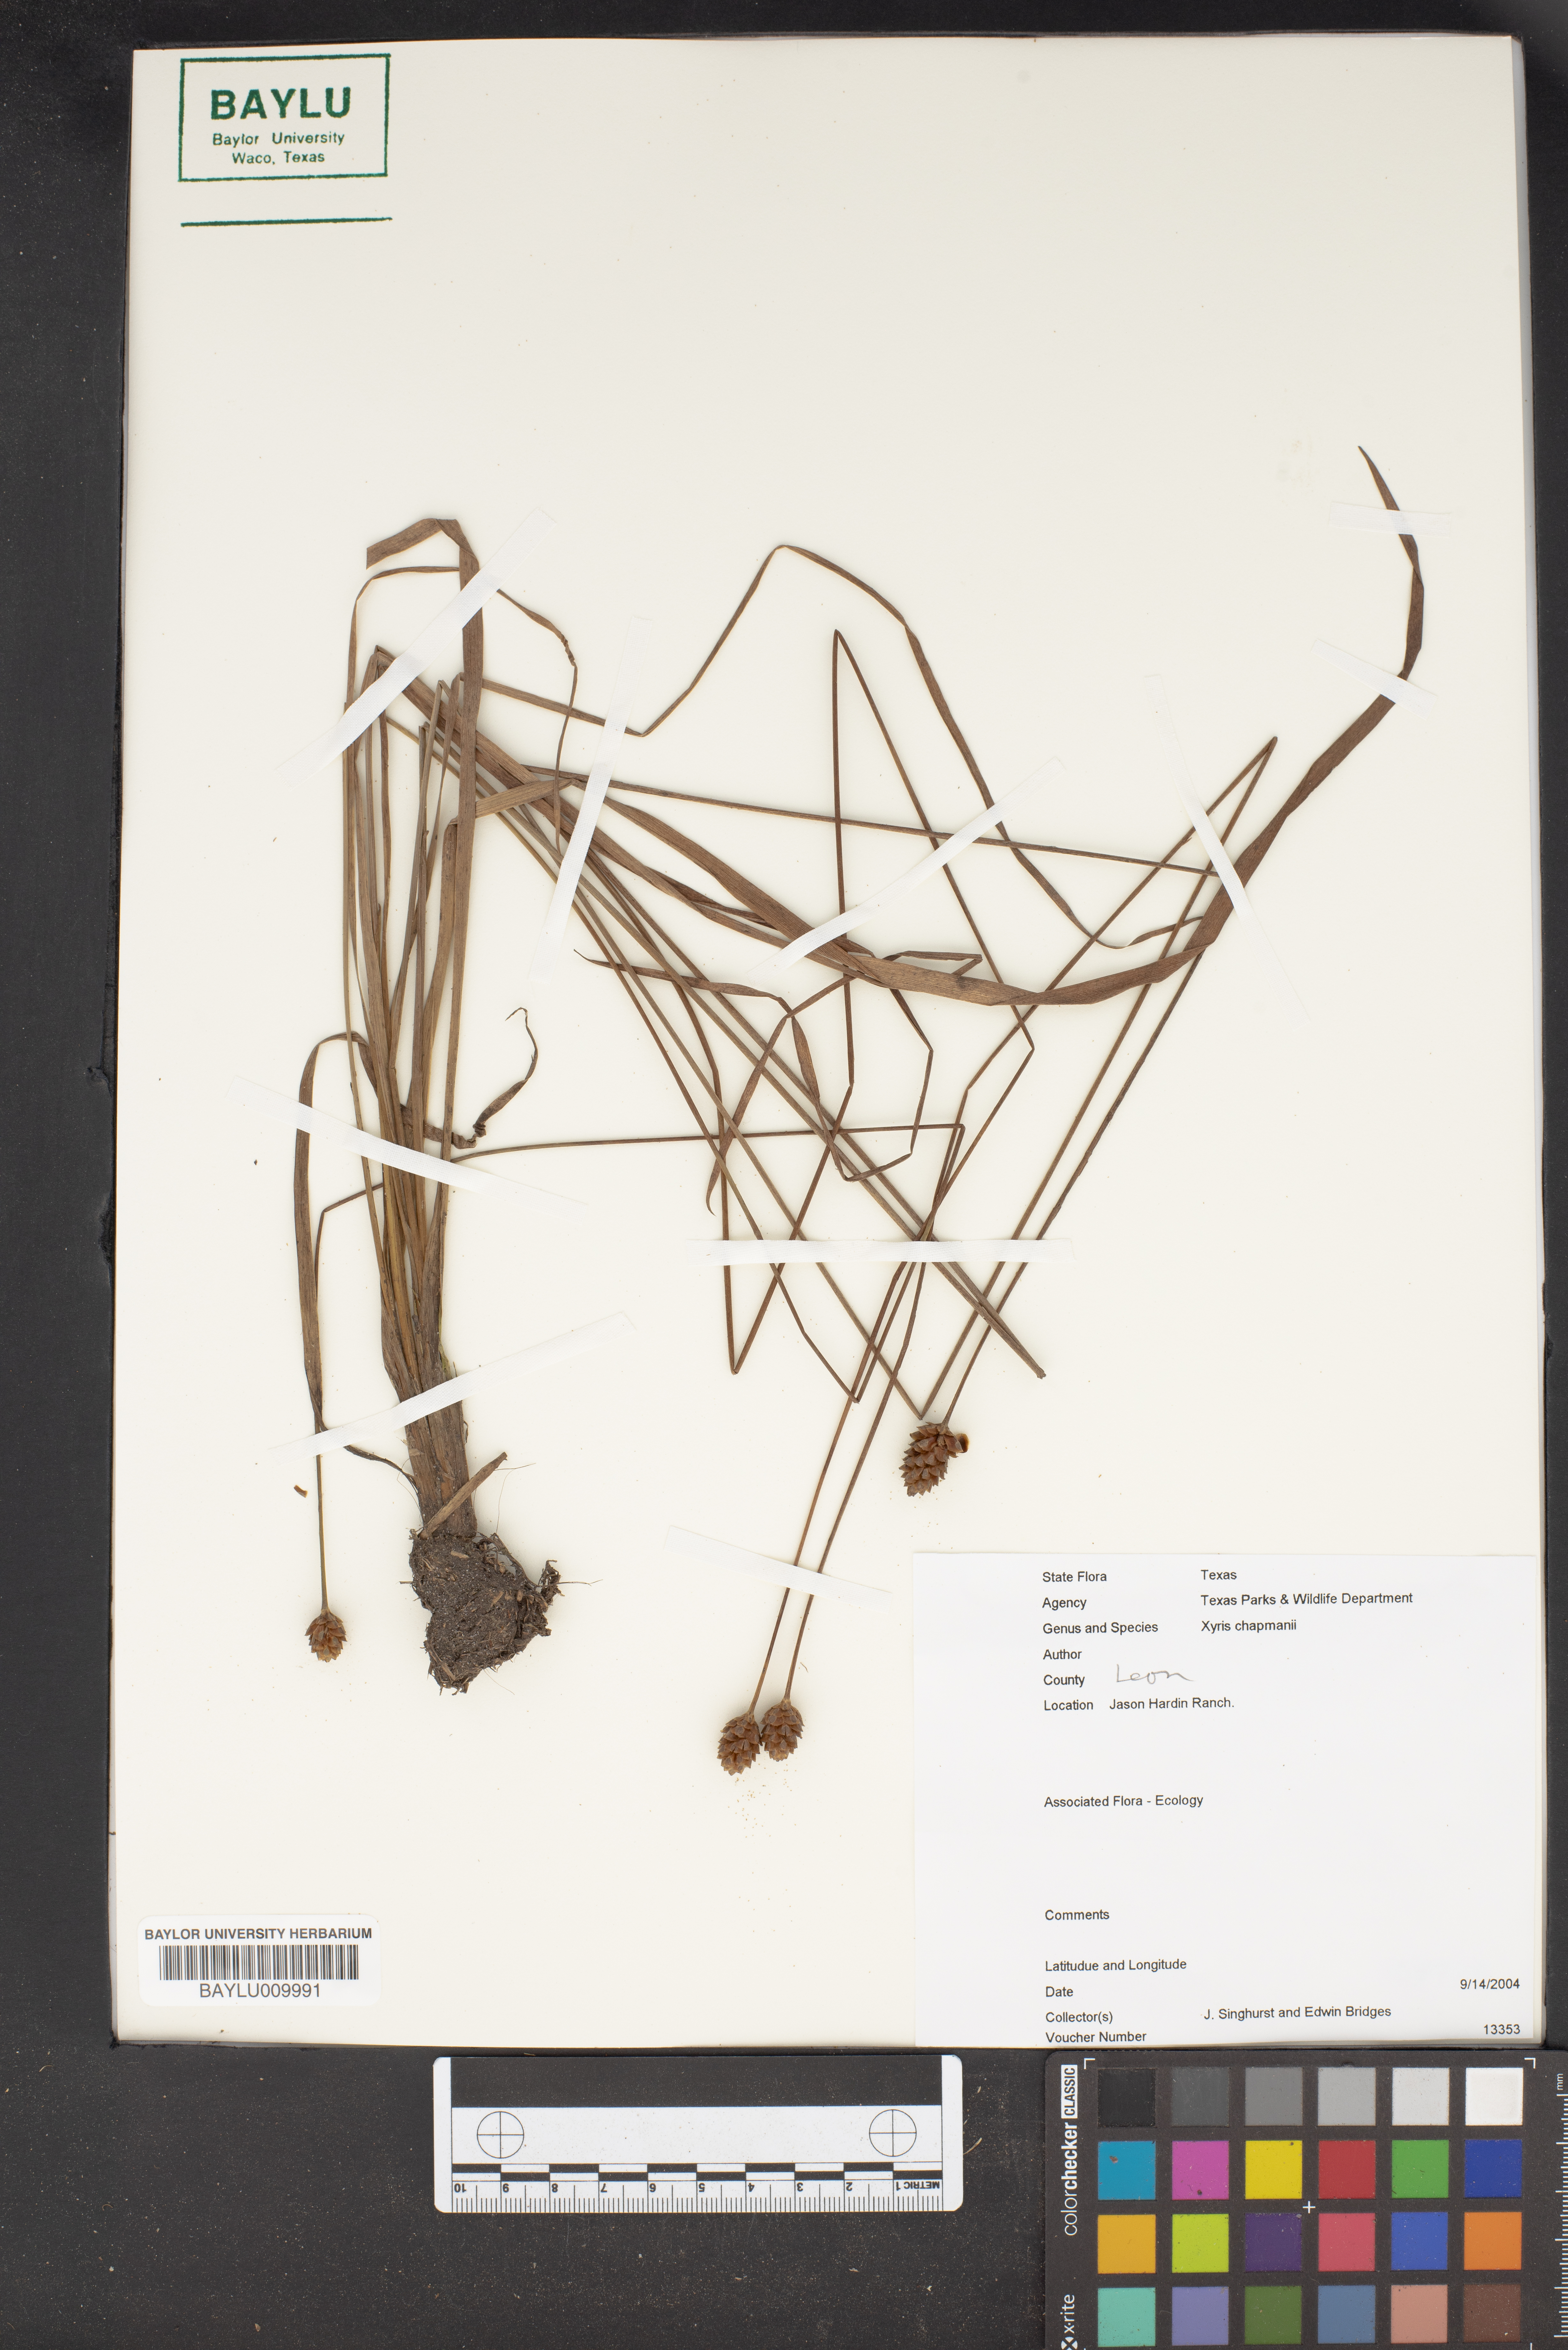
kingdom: Plantae
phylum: Tracheophyta
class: Liliopsida
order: Poales
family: Xyridaceae
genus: Xyris
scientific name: Xyris chapmanii
